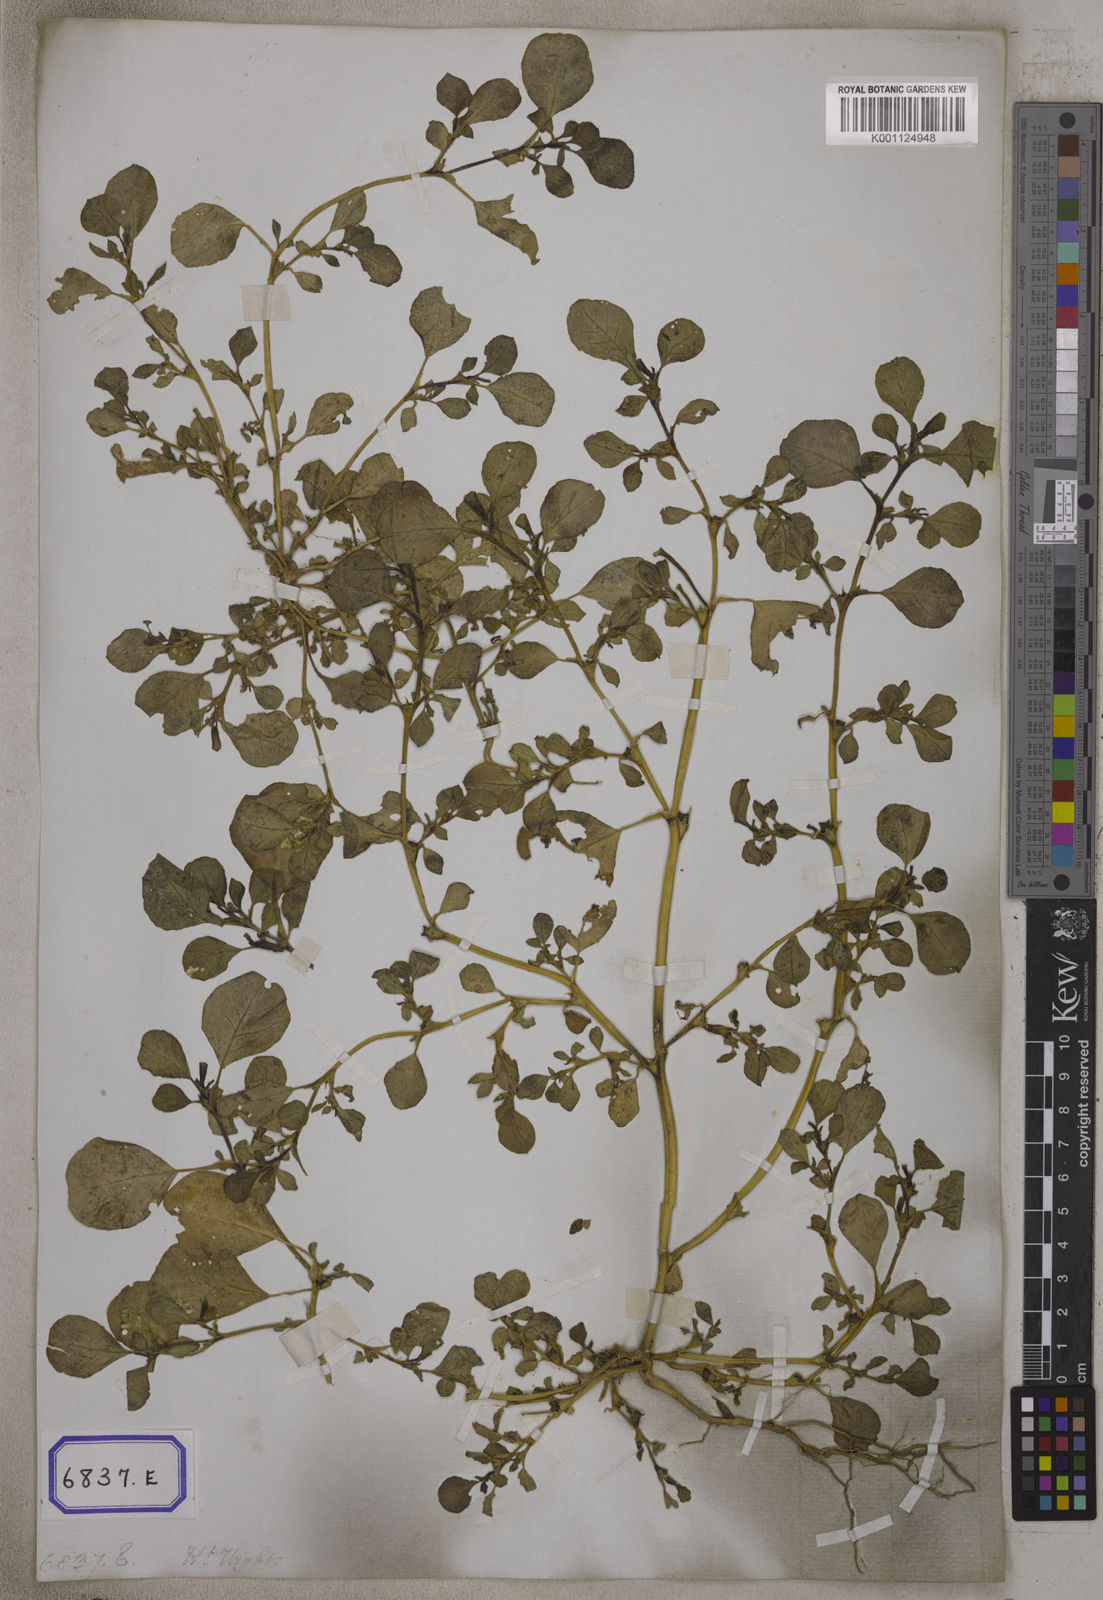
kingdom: Plantae
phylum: Tracheophyta
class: Magnoliopsida
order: Caryophyllales
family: Aizoaceae
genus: Trianthema
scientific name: Trianthema
